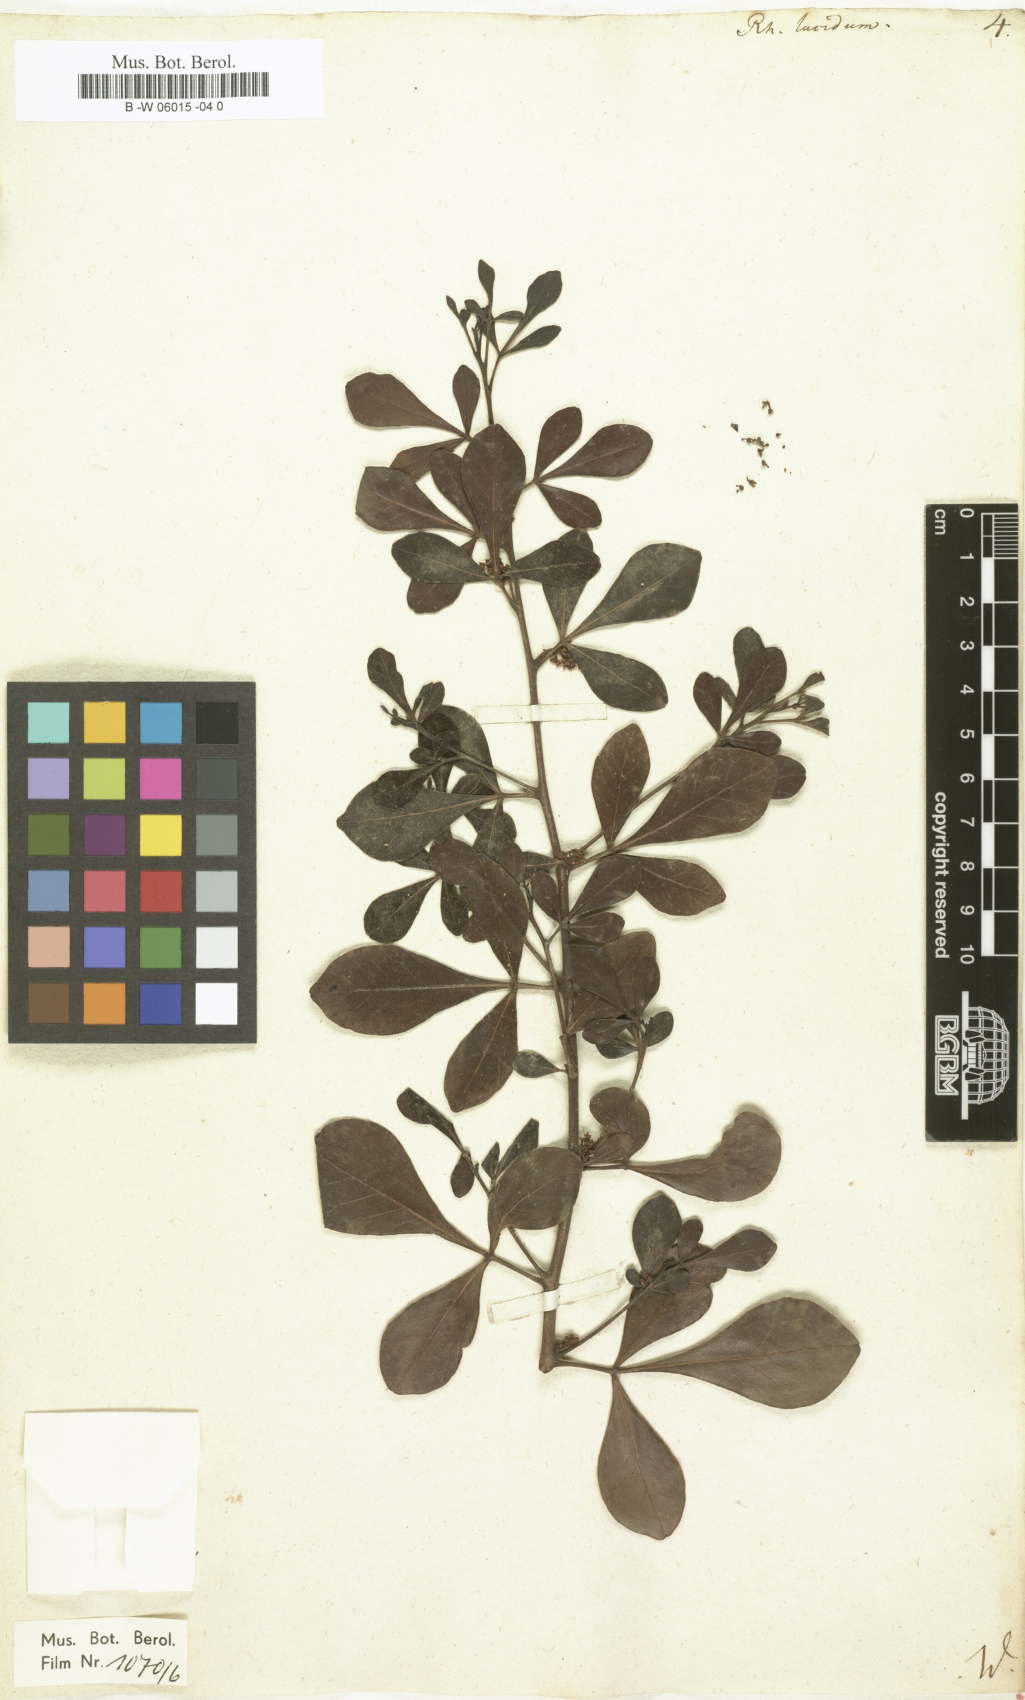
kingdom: Plantae
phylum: Tracheophyta
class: Magnoliopsida
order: Sapindales
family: Anacardiaceae
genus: Searsia
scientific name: Searsia
